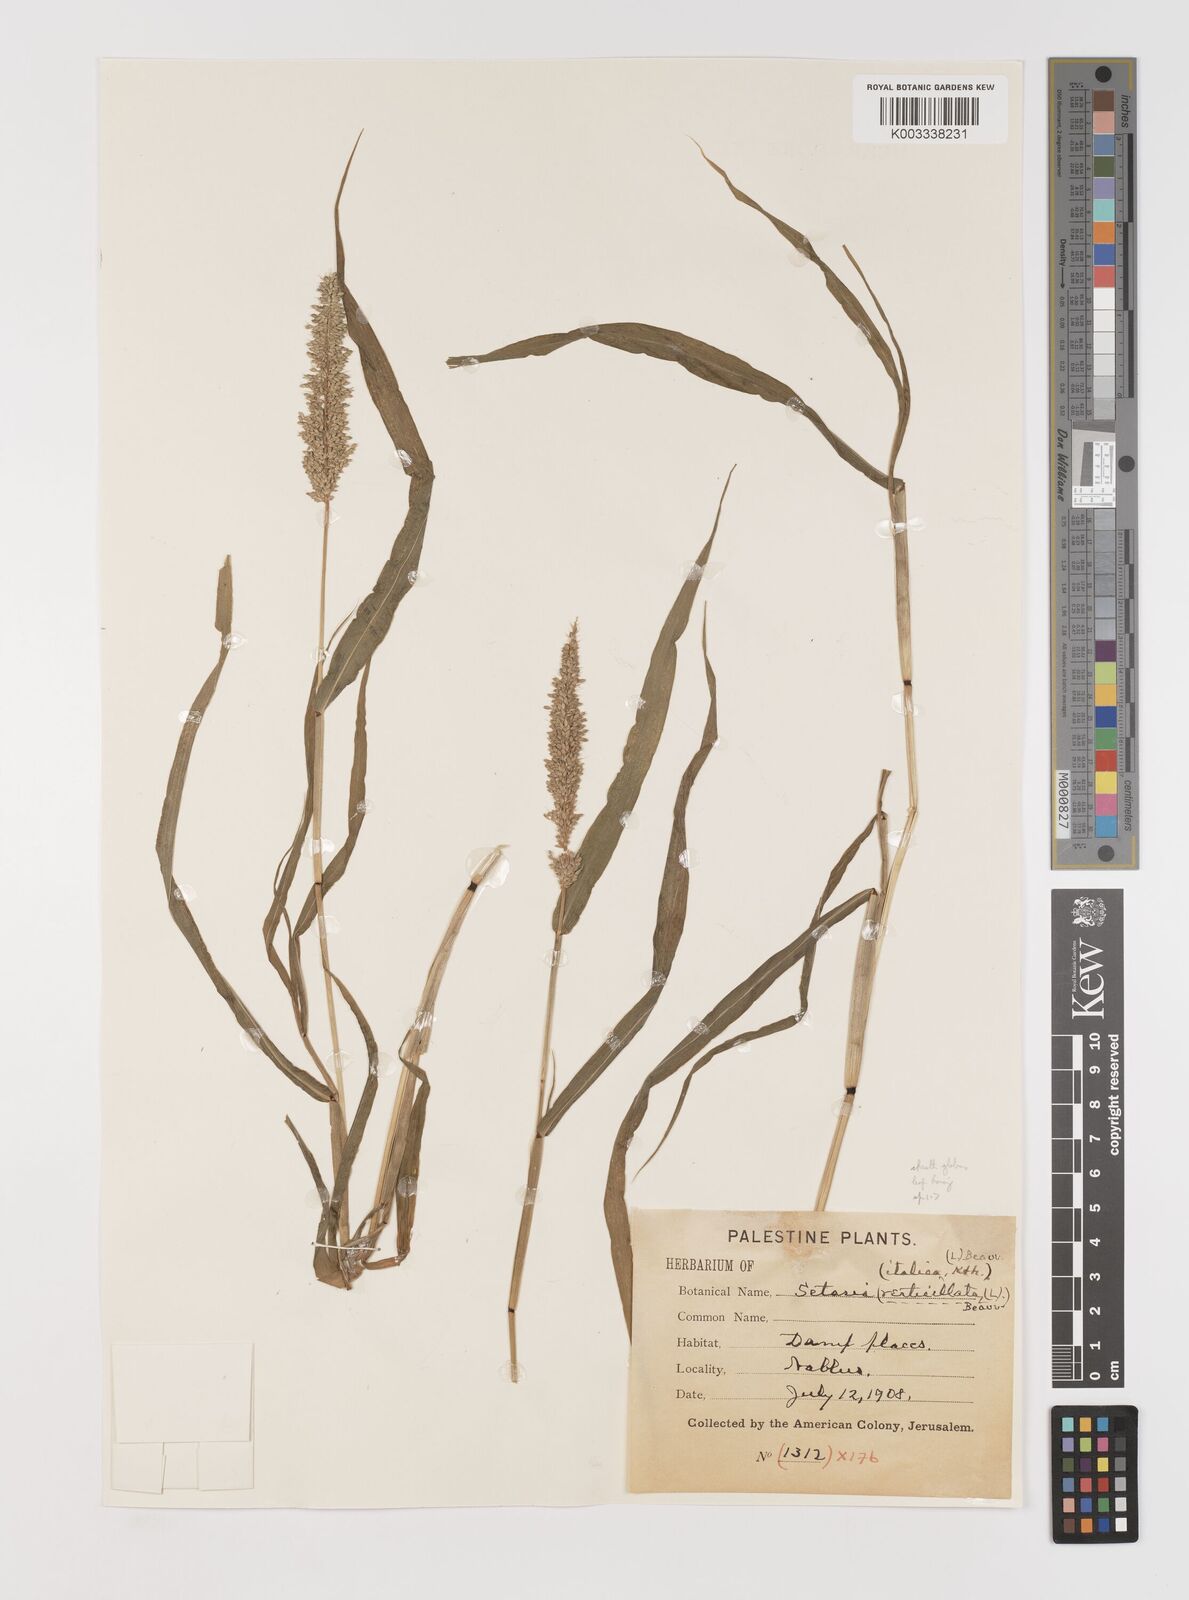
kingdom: Plantae
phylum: Tracheophyta
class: Liliopsida
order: Poales
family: Poaceae
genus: Setaria
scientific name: Setaria verticillata
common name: Hooked bristlegrass
